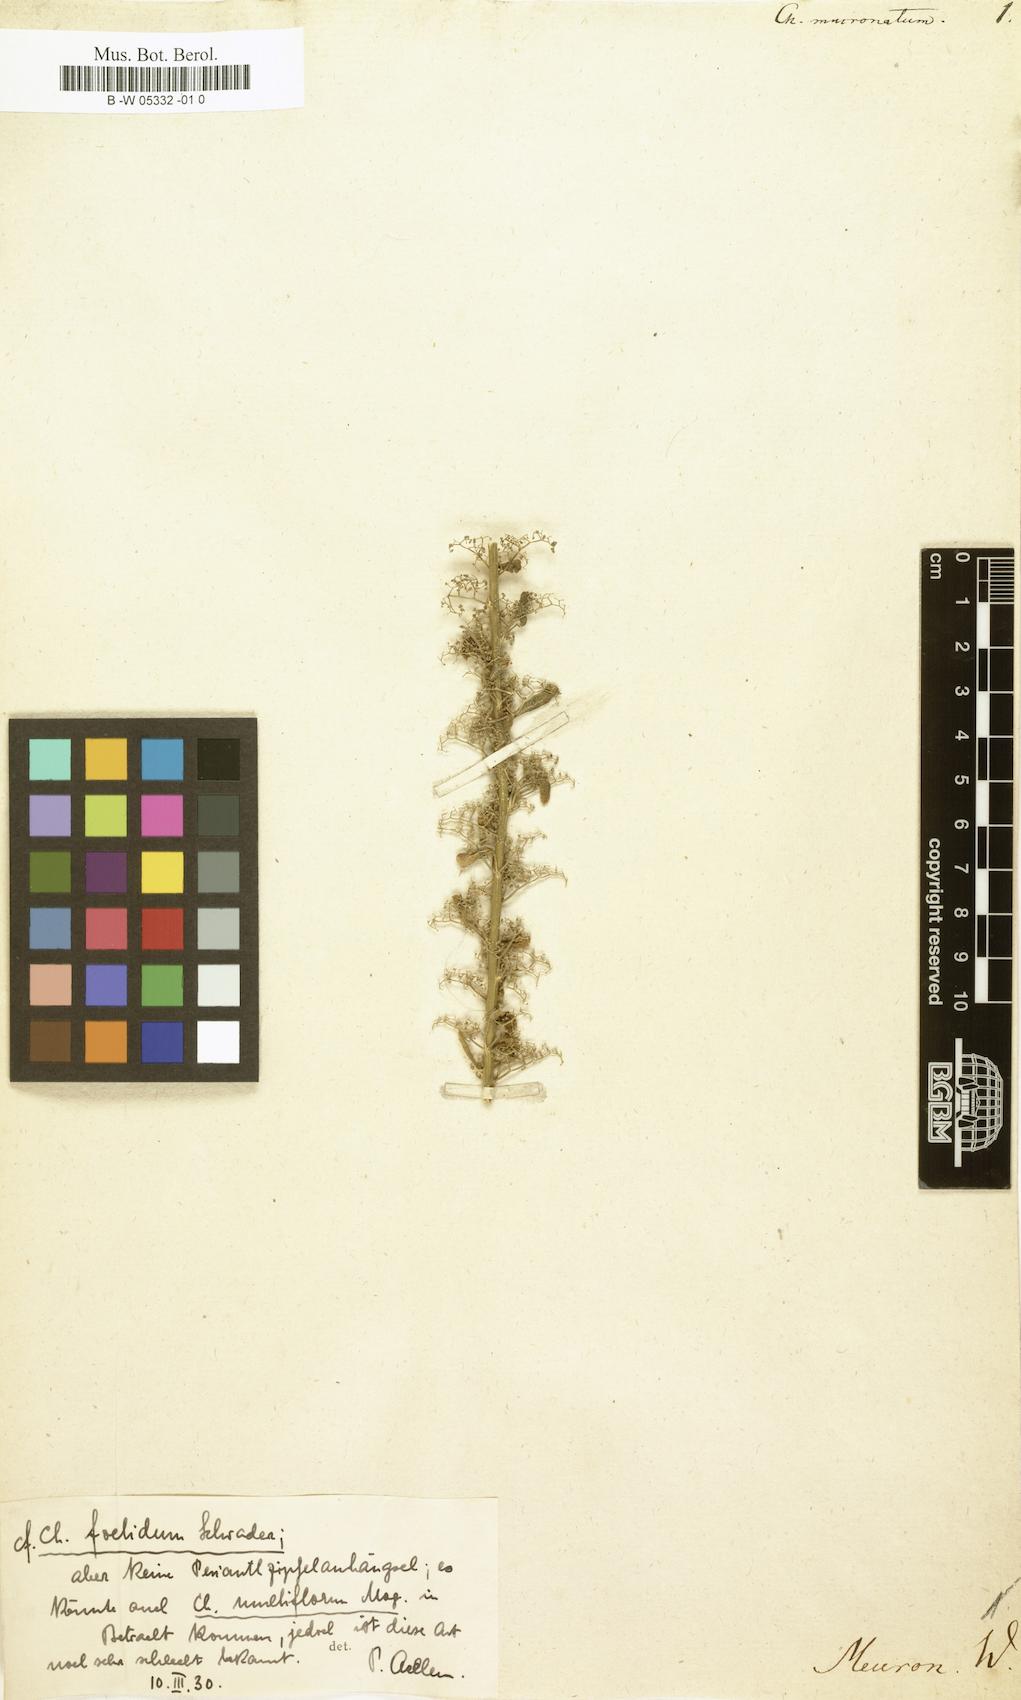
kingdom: Plantae
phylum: Tracheophyta
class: Magnoliopsida
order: Caryophyllales
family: Amaranthaceae
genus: Chenopodium
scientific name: Chenopodium mucronatum
